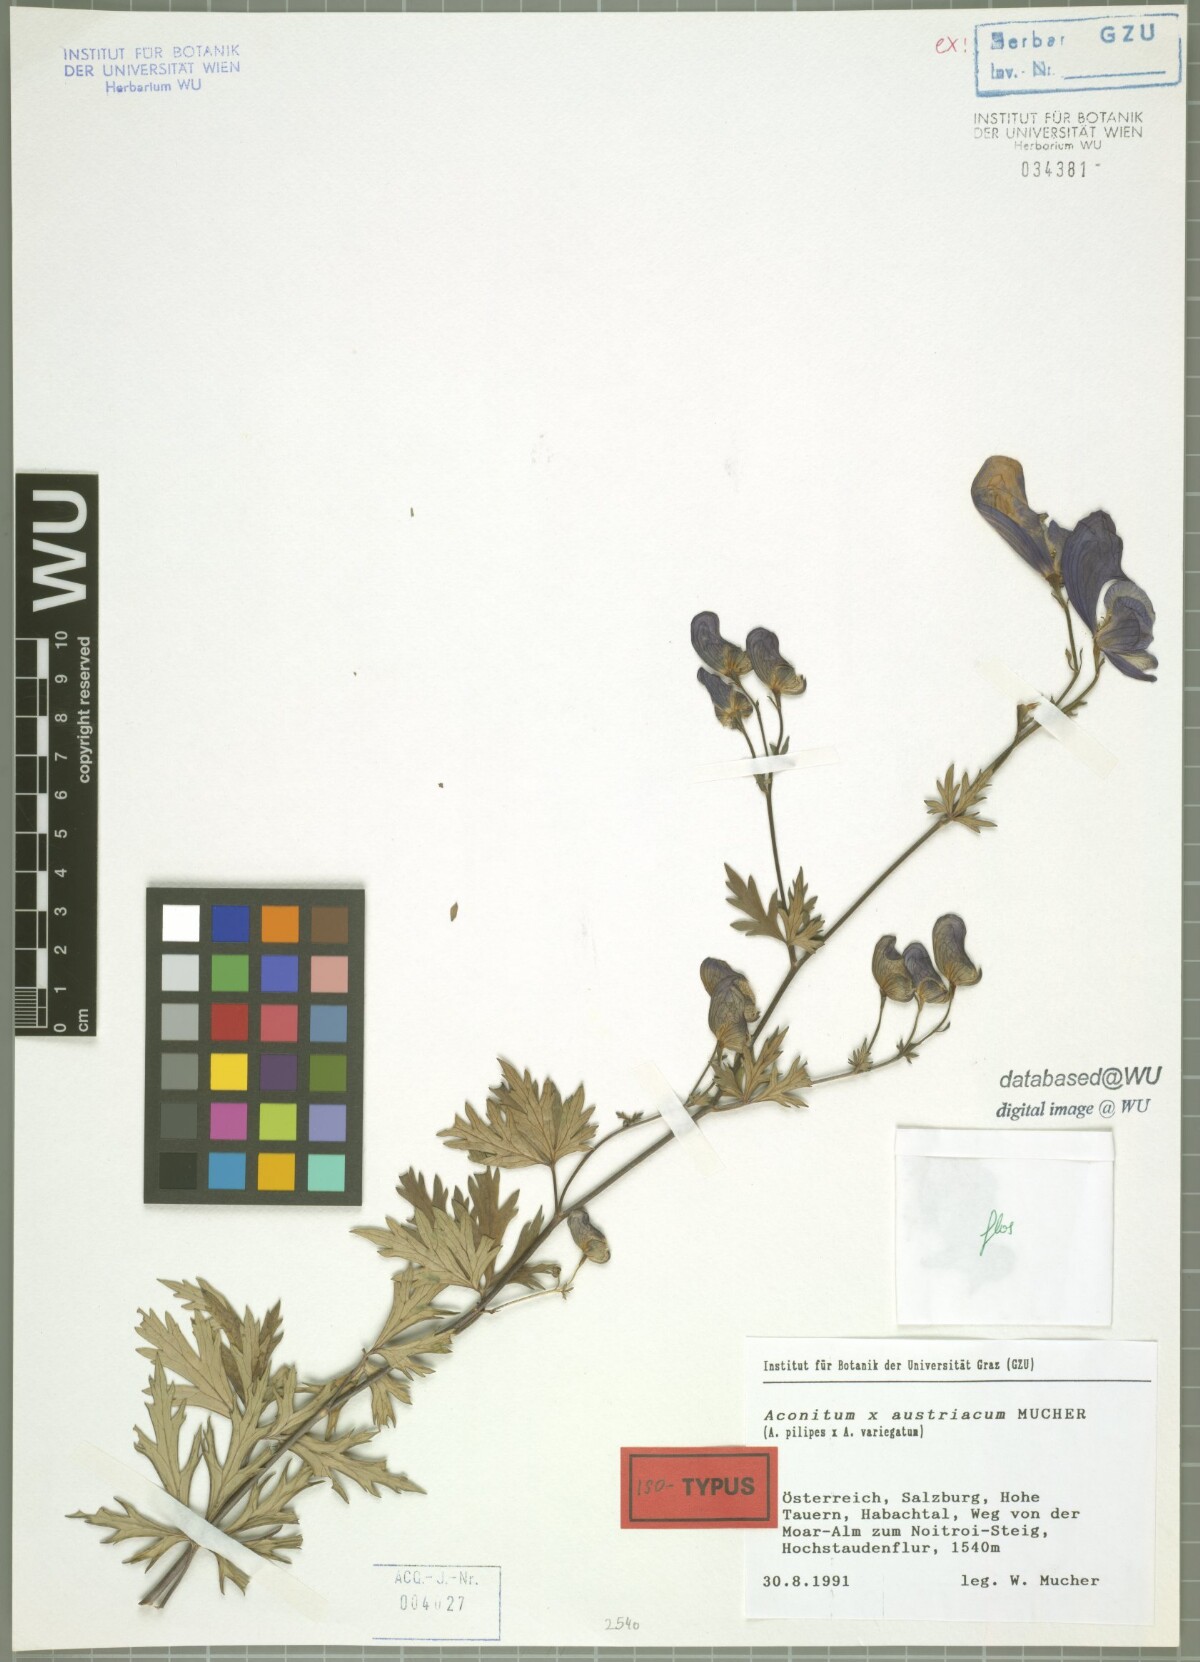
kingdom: Plantae
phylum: Tracheophyta
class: Magnoliopsida
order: Ranunculales
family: Ranunculaceae
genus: Aconitum
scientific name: Aconitum austriacum
